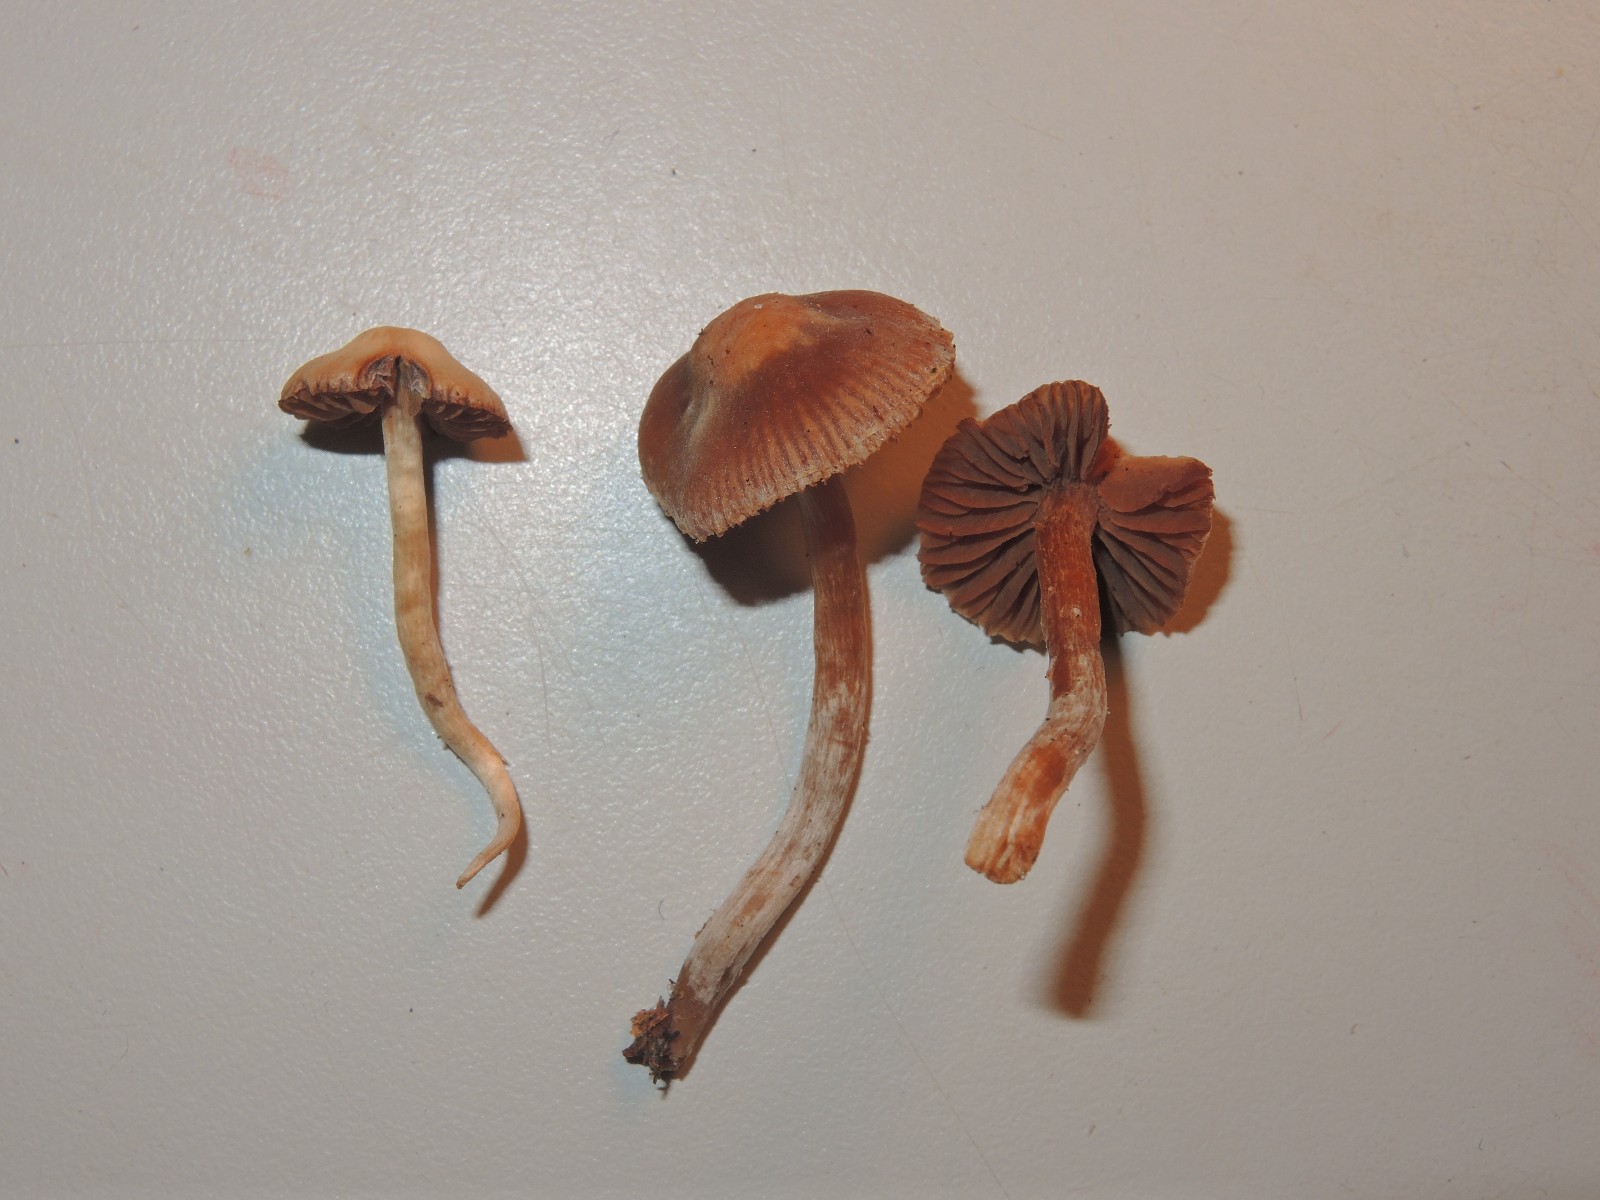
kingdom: Fungi
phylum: Basidiomycota
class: Agaricomycetes
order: Agaricales
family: Cortinariaceae
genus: Cortinarius
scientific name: Cortinarius fragrantissimus
